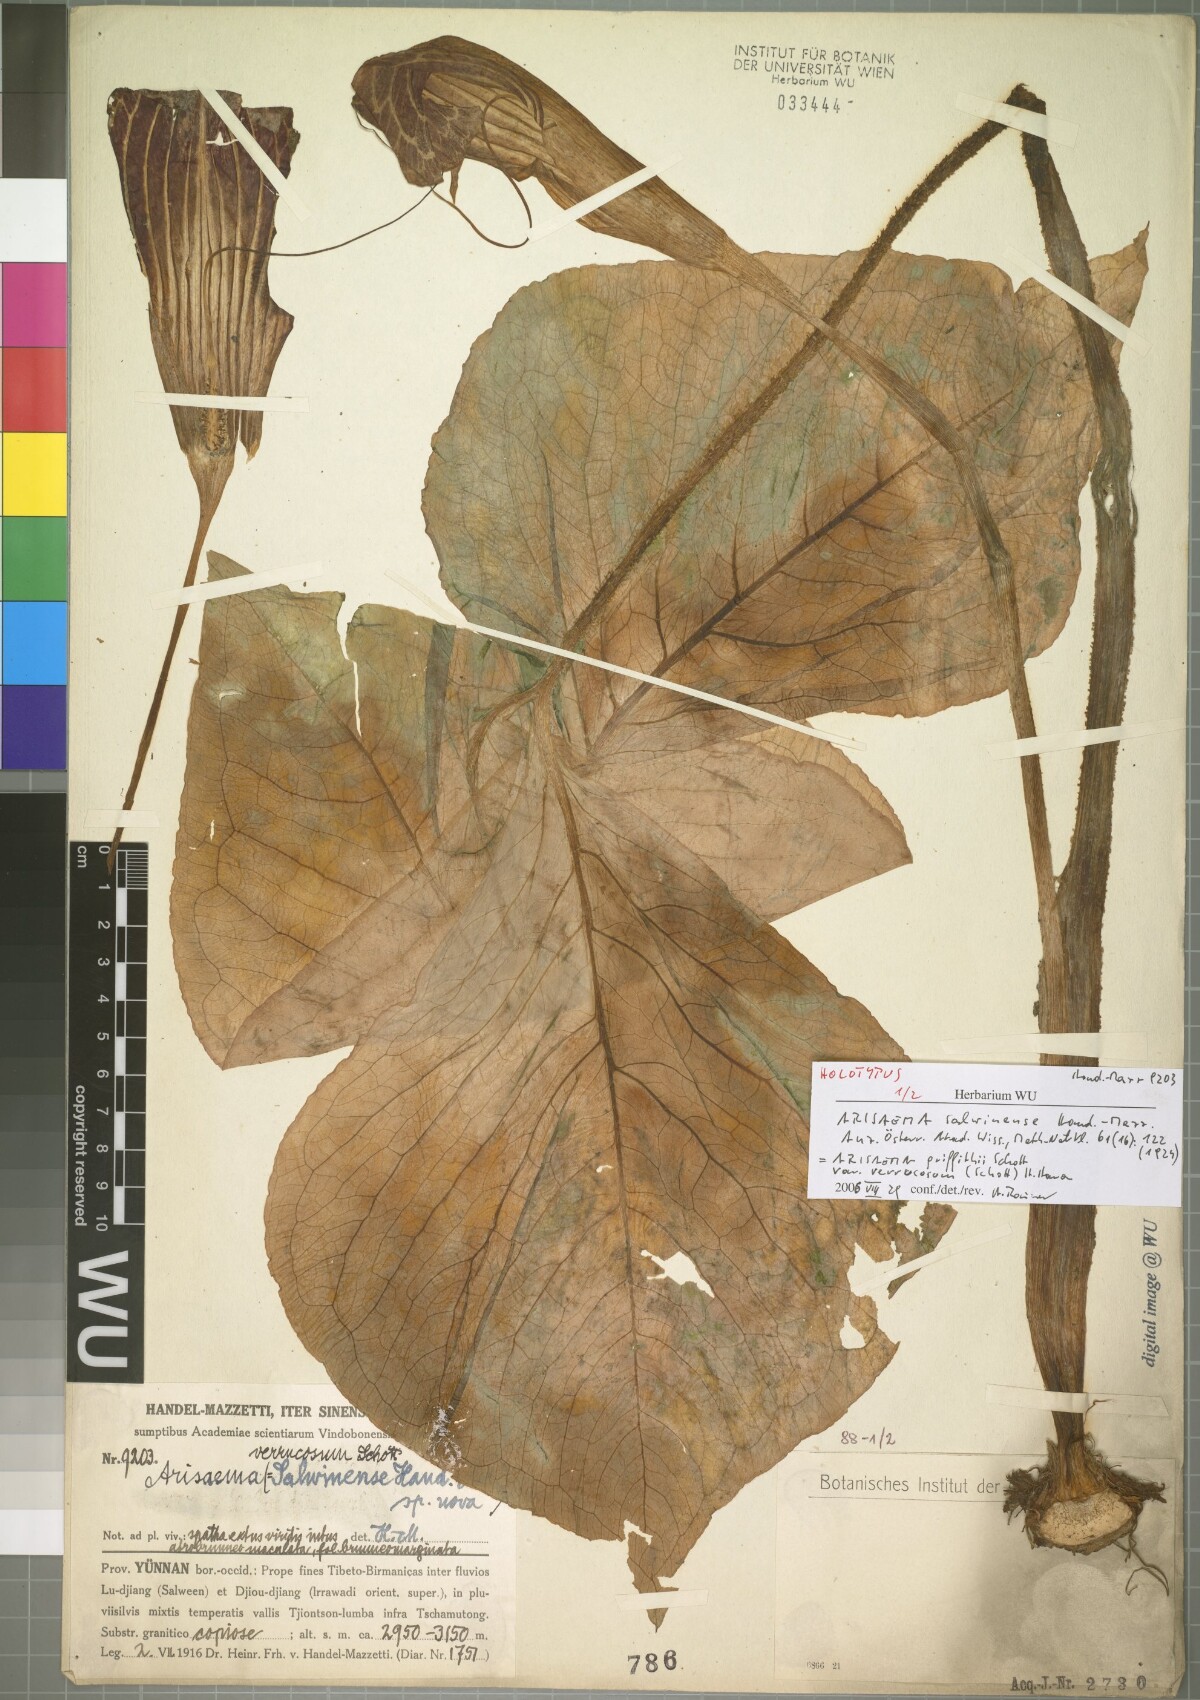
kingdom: Plantae
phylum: Tracheophyta
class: Liliopsida
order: Alismatales
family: Araceae
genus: Arisaema
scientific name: Arisaema bonatianum
